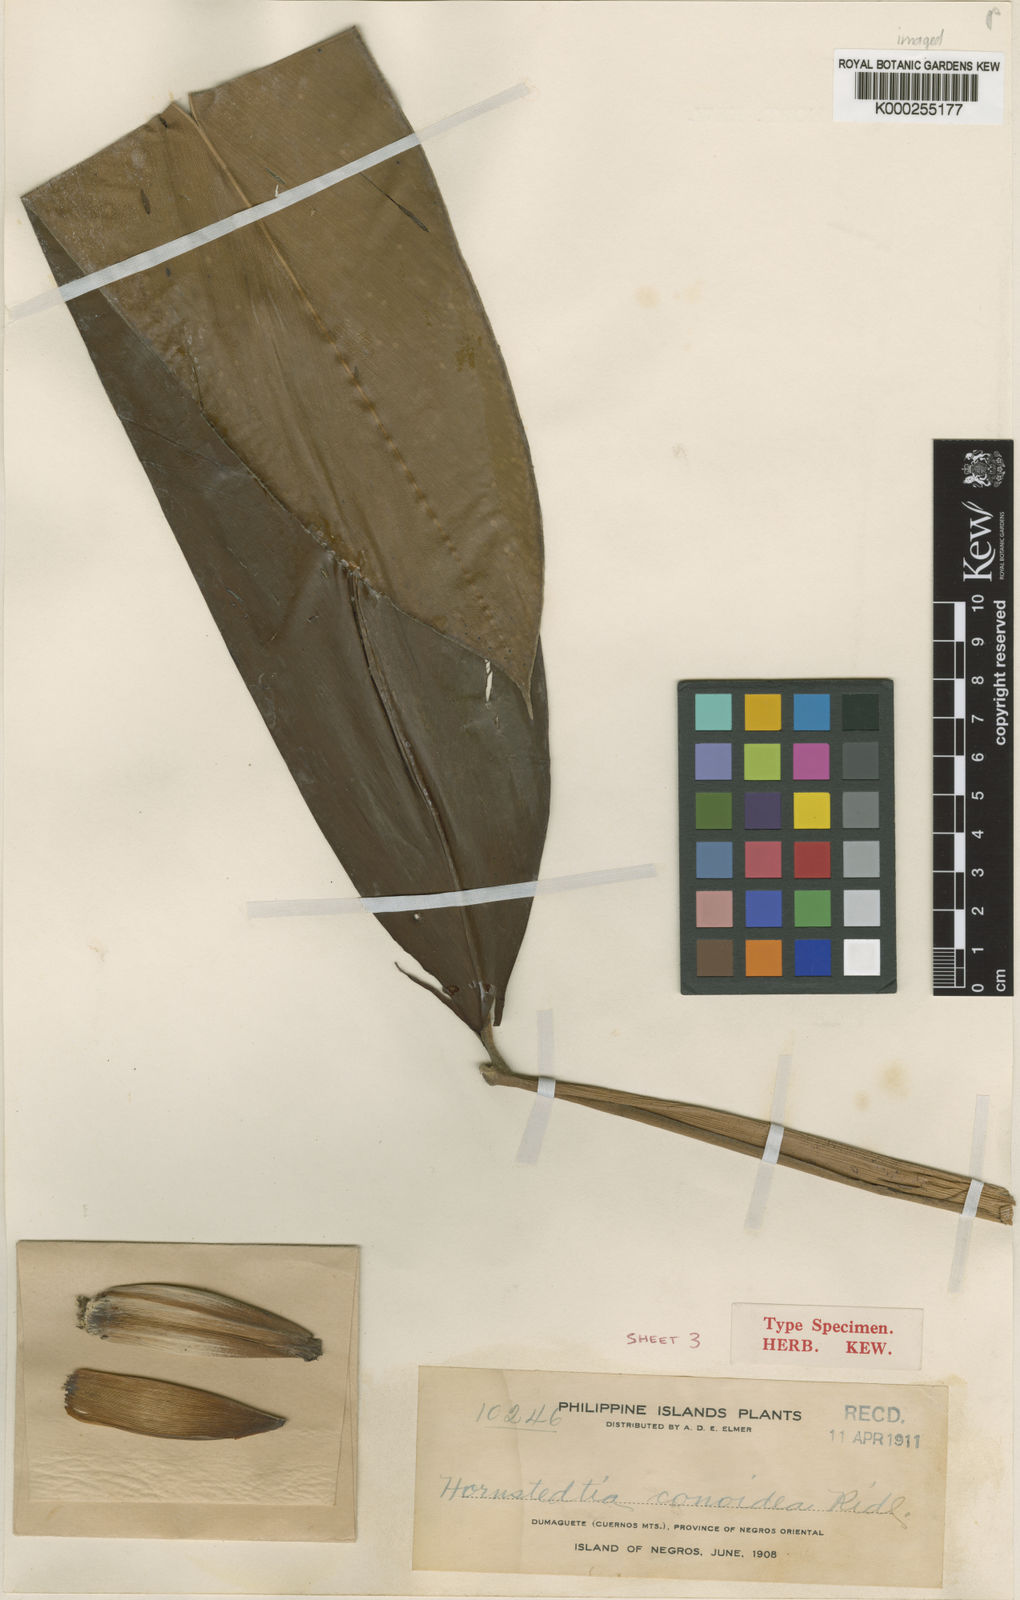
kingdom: Plantae
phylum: Tracheophyta
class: Liliopsida
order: Zingiberales
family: Zingiberaceae
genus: Hornstedtia
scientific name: Hornstedtia conoidea
